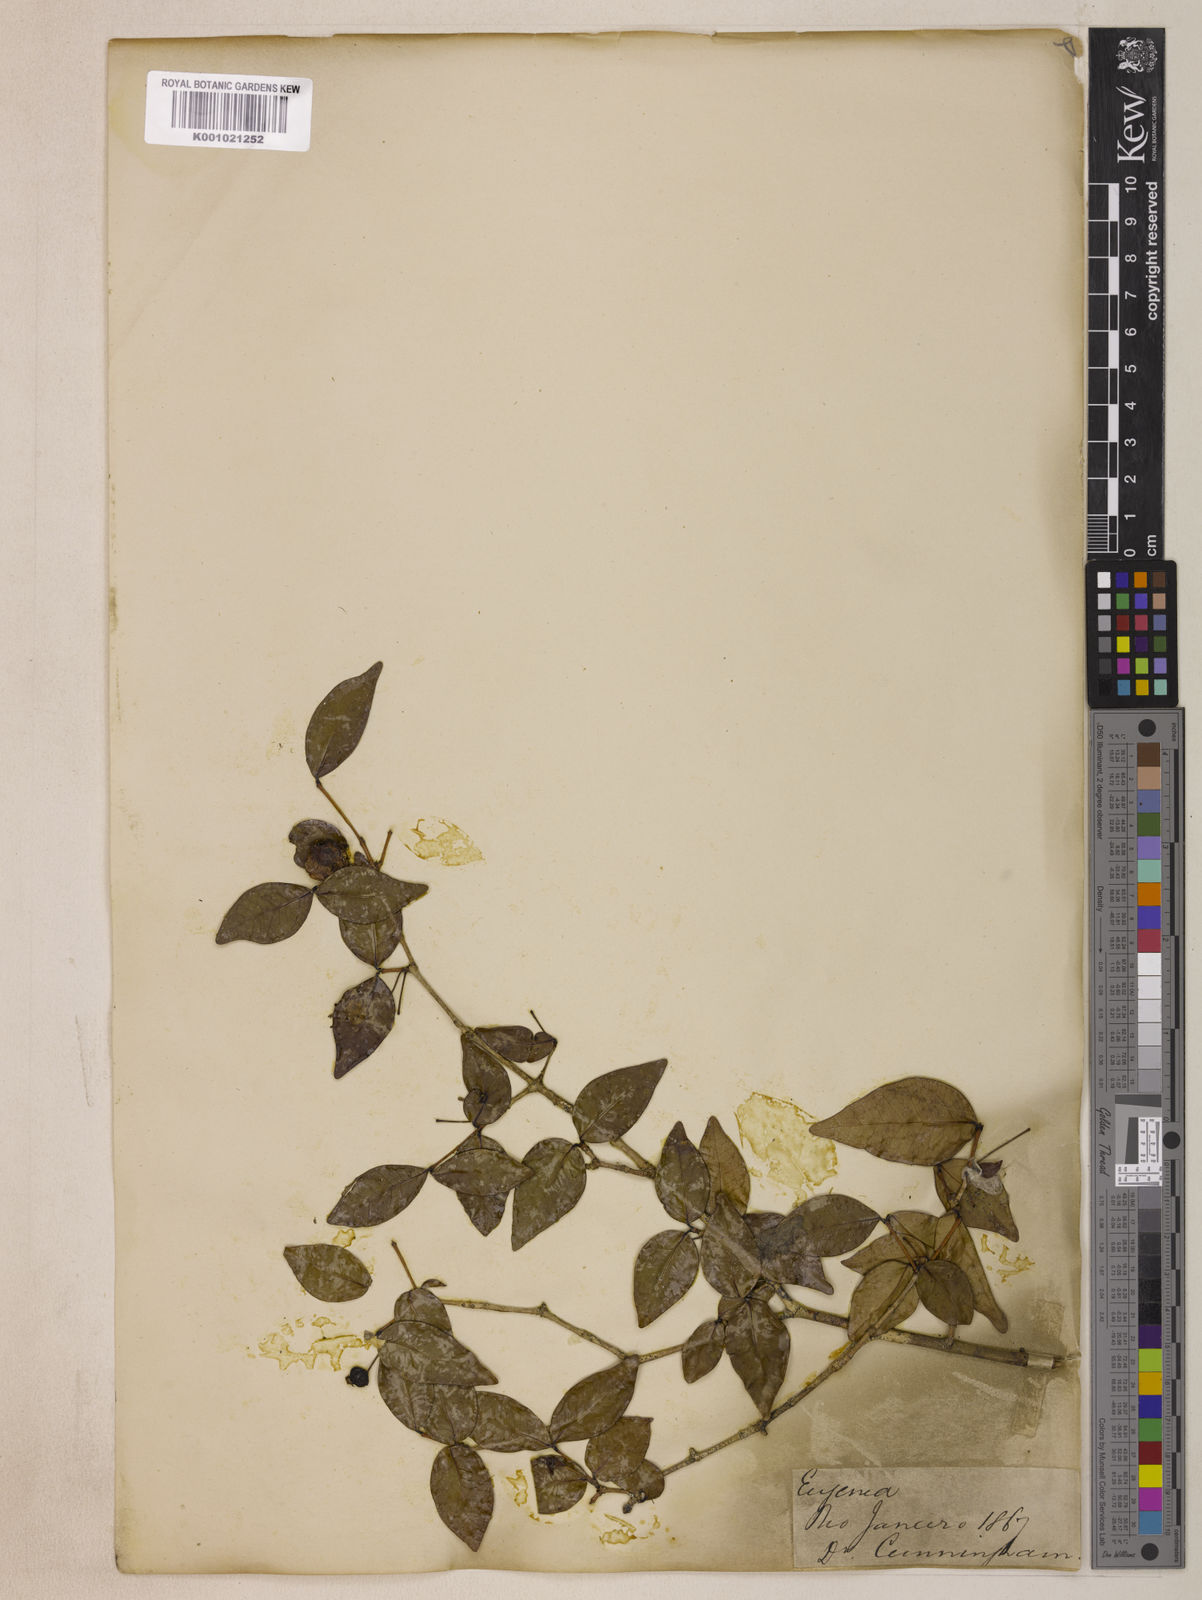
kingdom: Plantae
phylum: Tracheophyta
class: Magnoliopsida
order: Myrtales
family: Myrtaceae
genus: Eugenia
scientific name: Eugenia uniflora
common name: Surinam cherry
